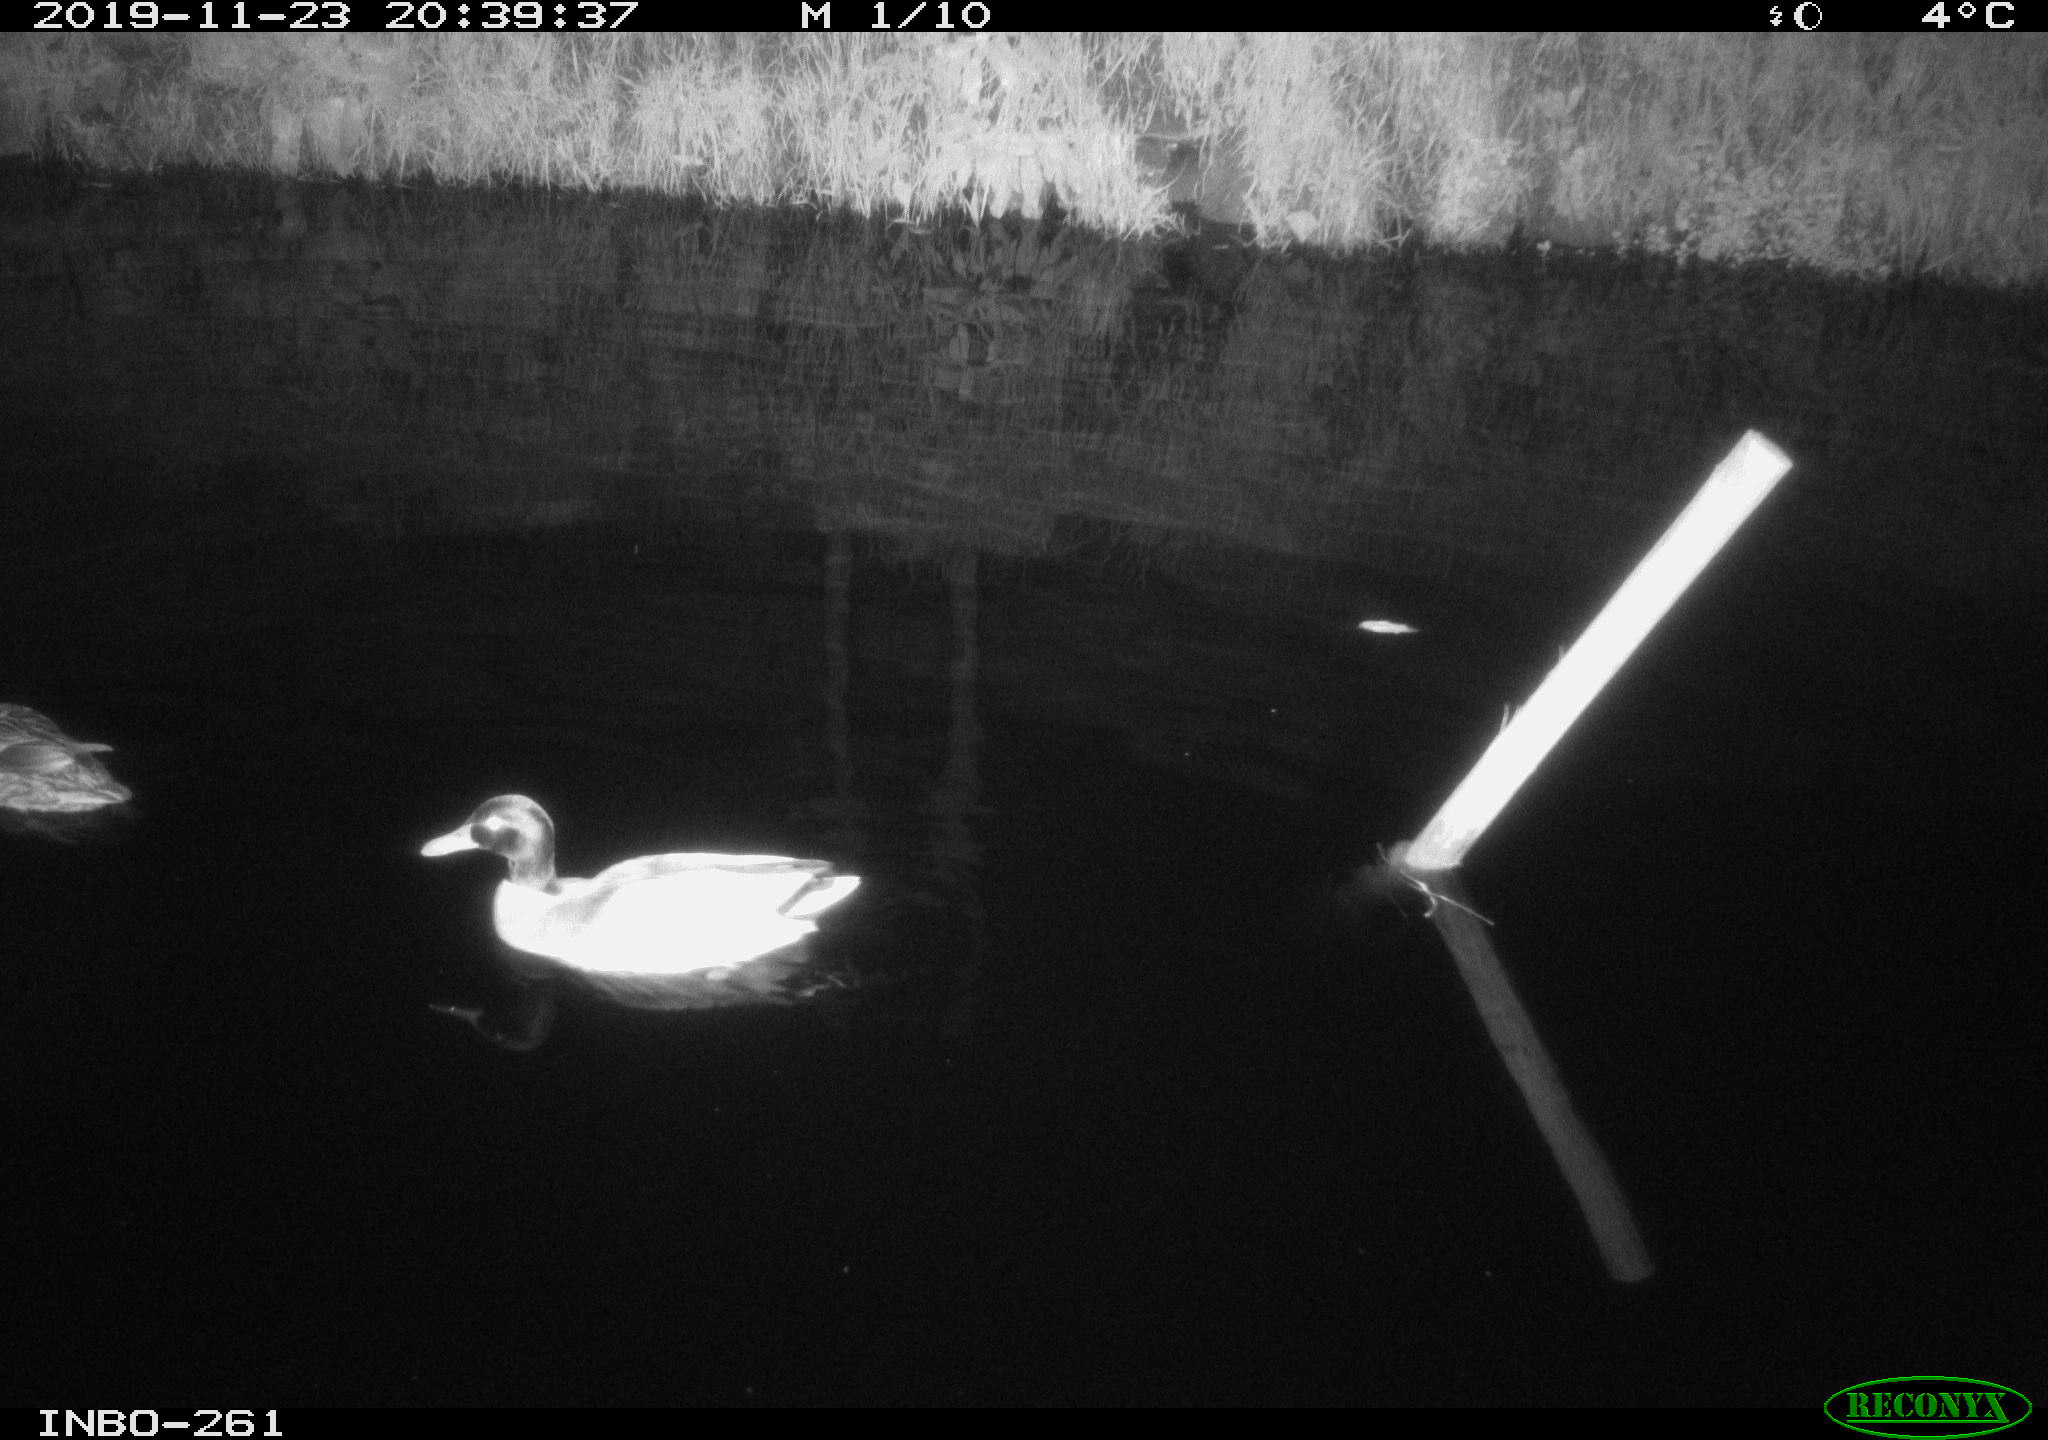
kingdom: Animalia
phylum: Chordata
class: Aves
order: Anseriformes
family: Anatidae
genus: Anas
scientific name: Anas platyrhynchos
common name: Mallard
